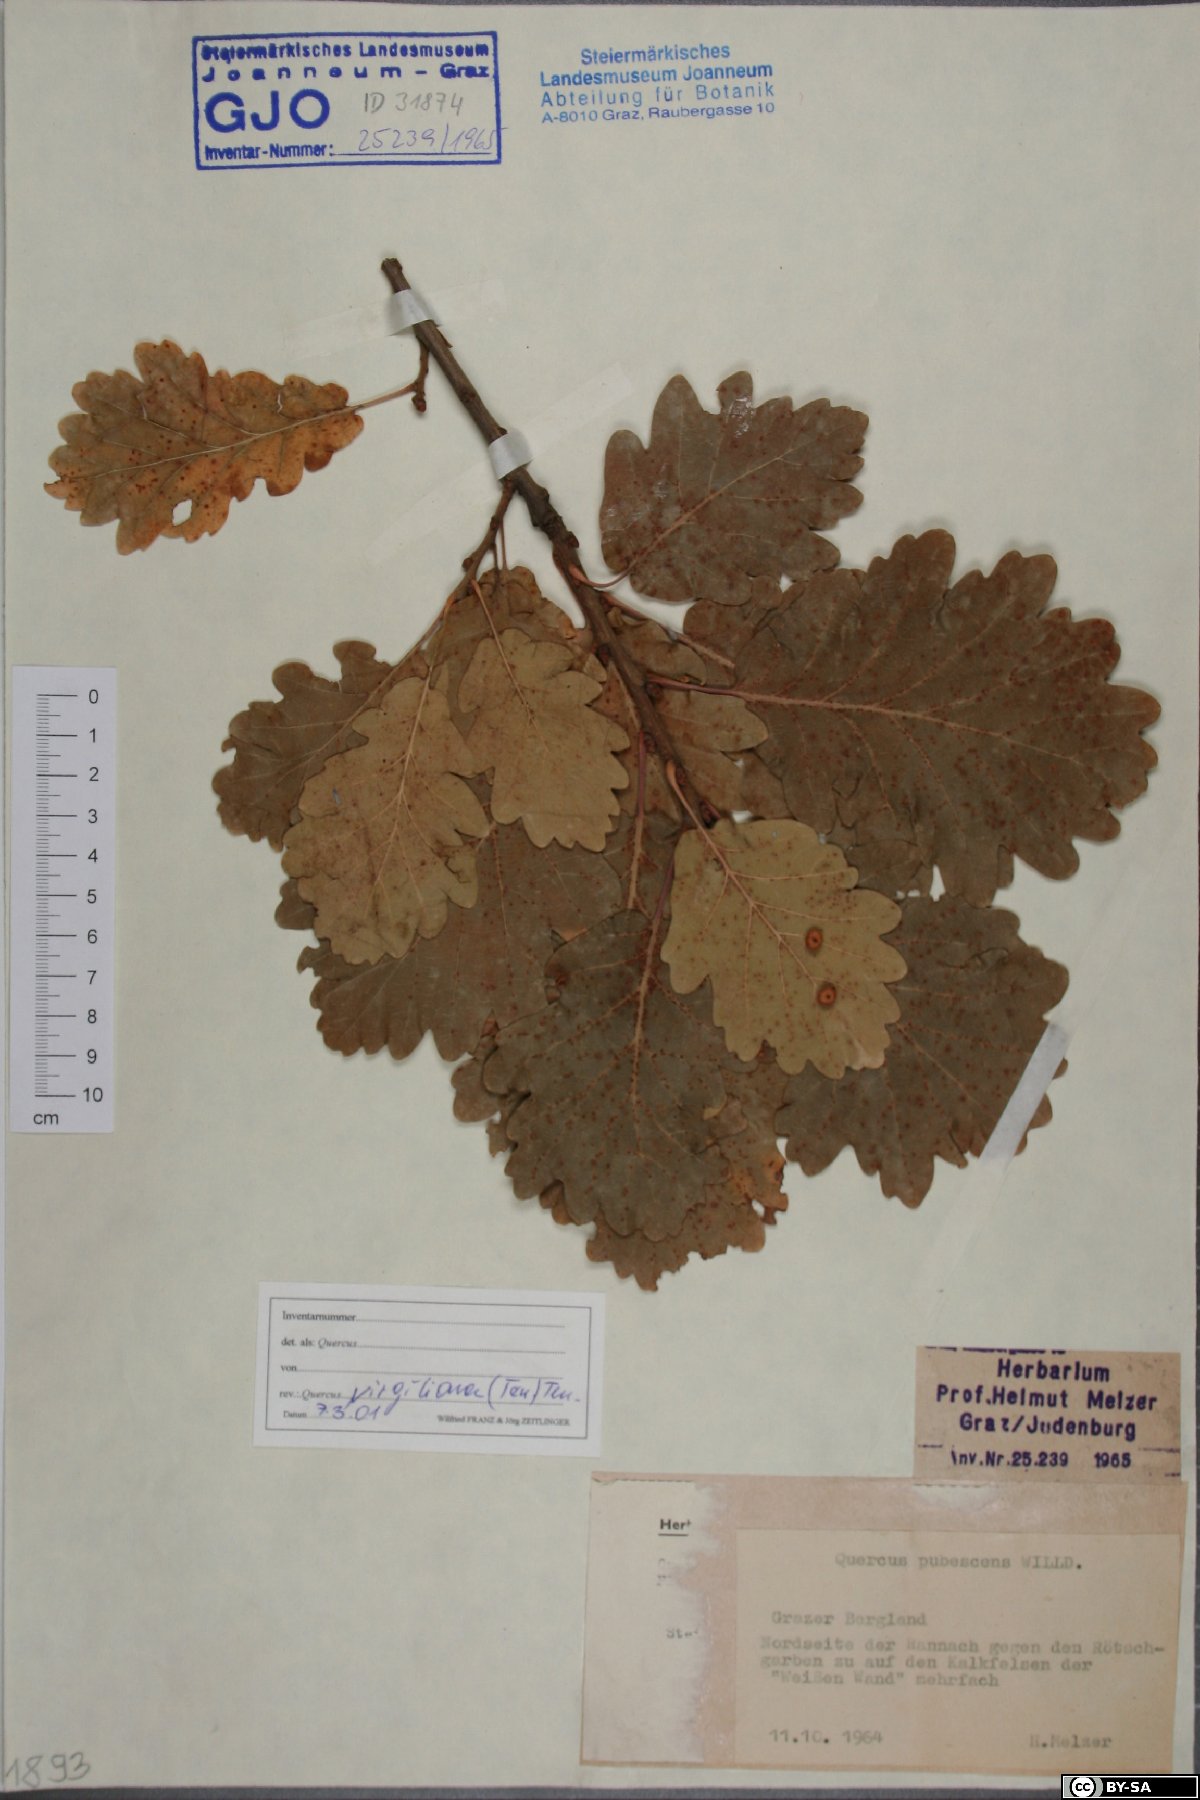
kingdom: Plantae
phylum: Tracheophyta
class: Magnoliopsida
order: Fagales
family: Fagaceae
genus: Quercus
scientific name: Quercus pubescens
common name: Downy oak
